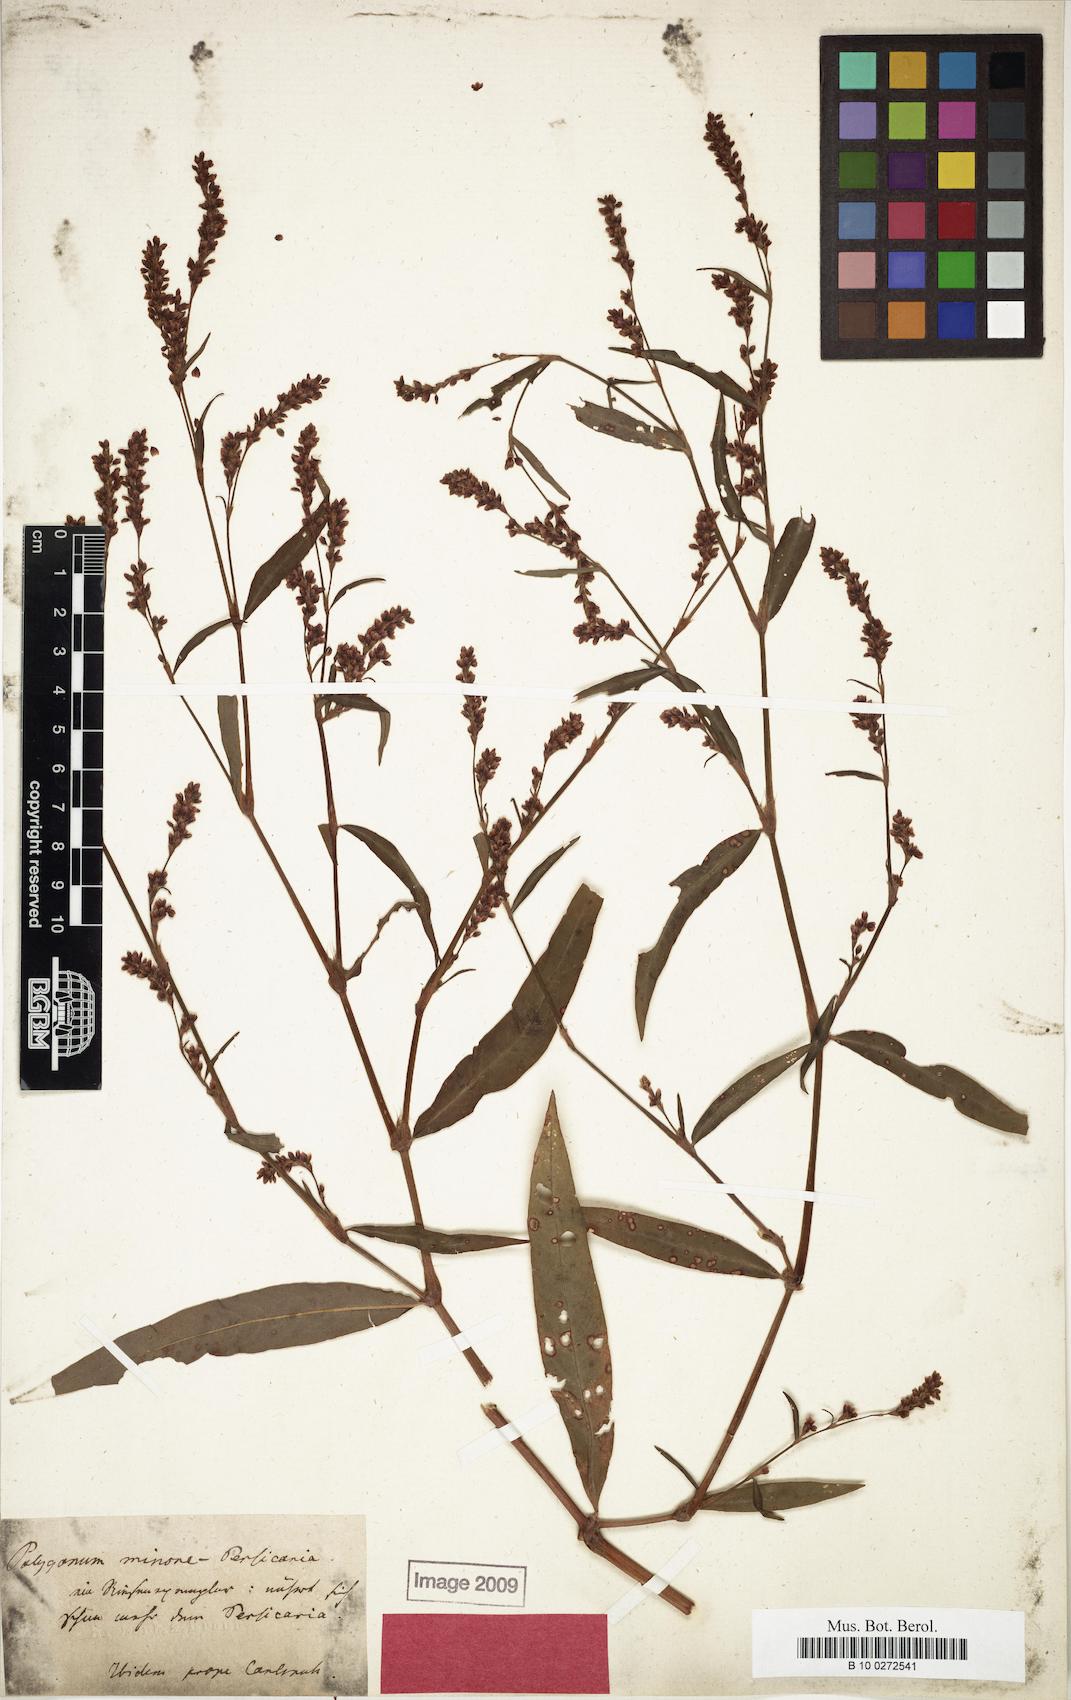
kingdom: Plantae
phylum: Tracheophyta
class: Magnoliopsida
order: Caryophyllales
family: Polygonaceae
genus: Persicaria
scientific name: Persicaria
